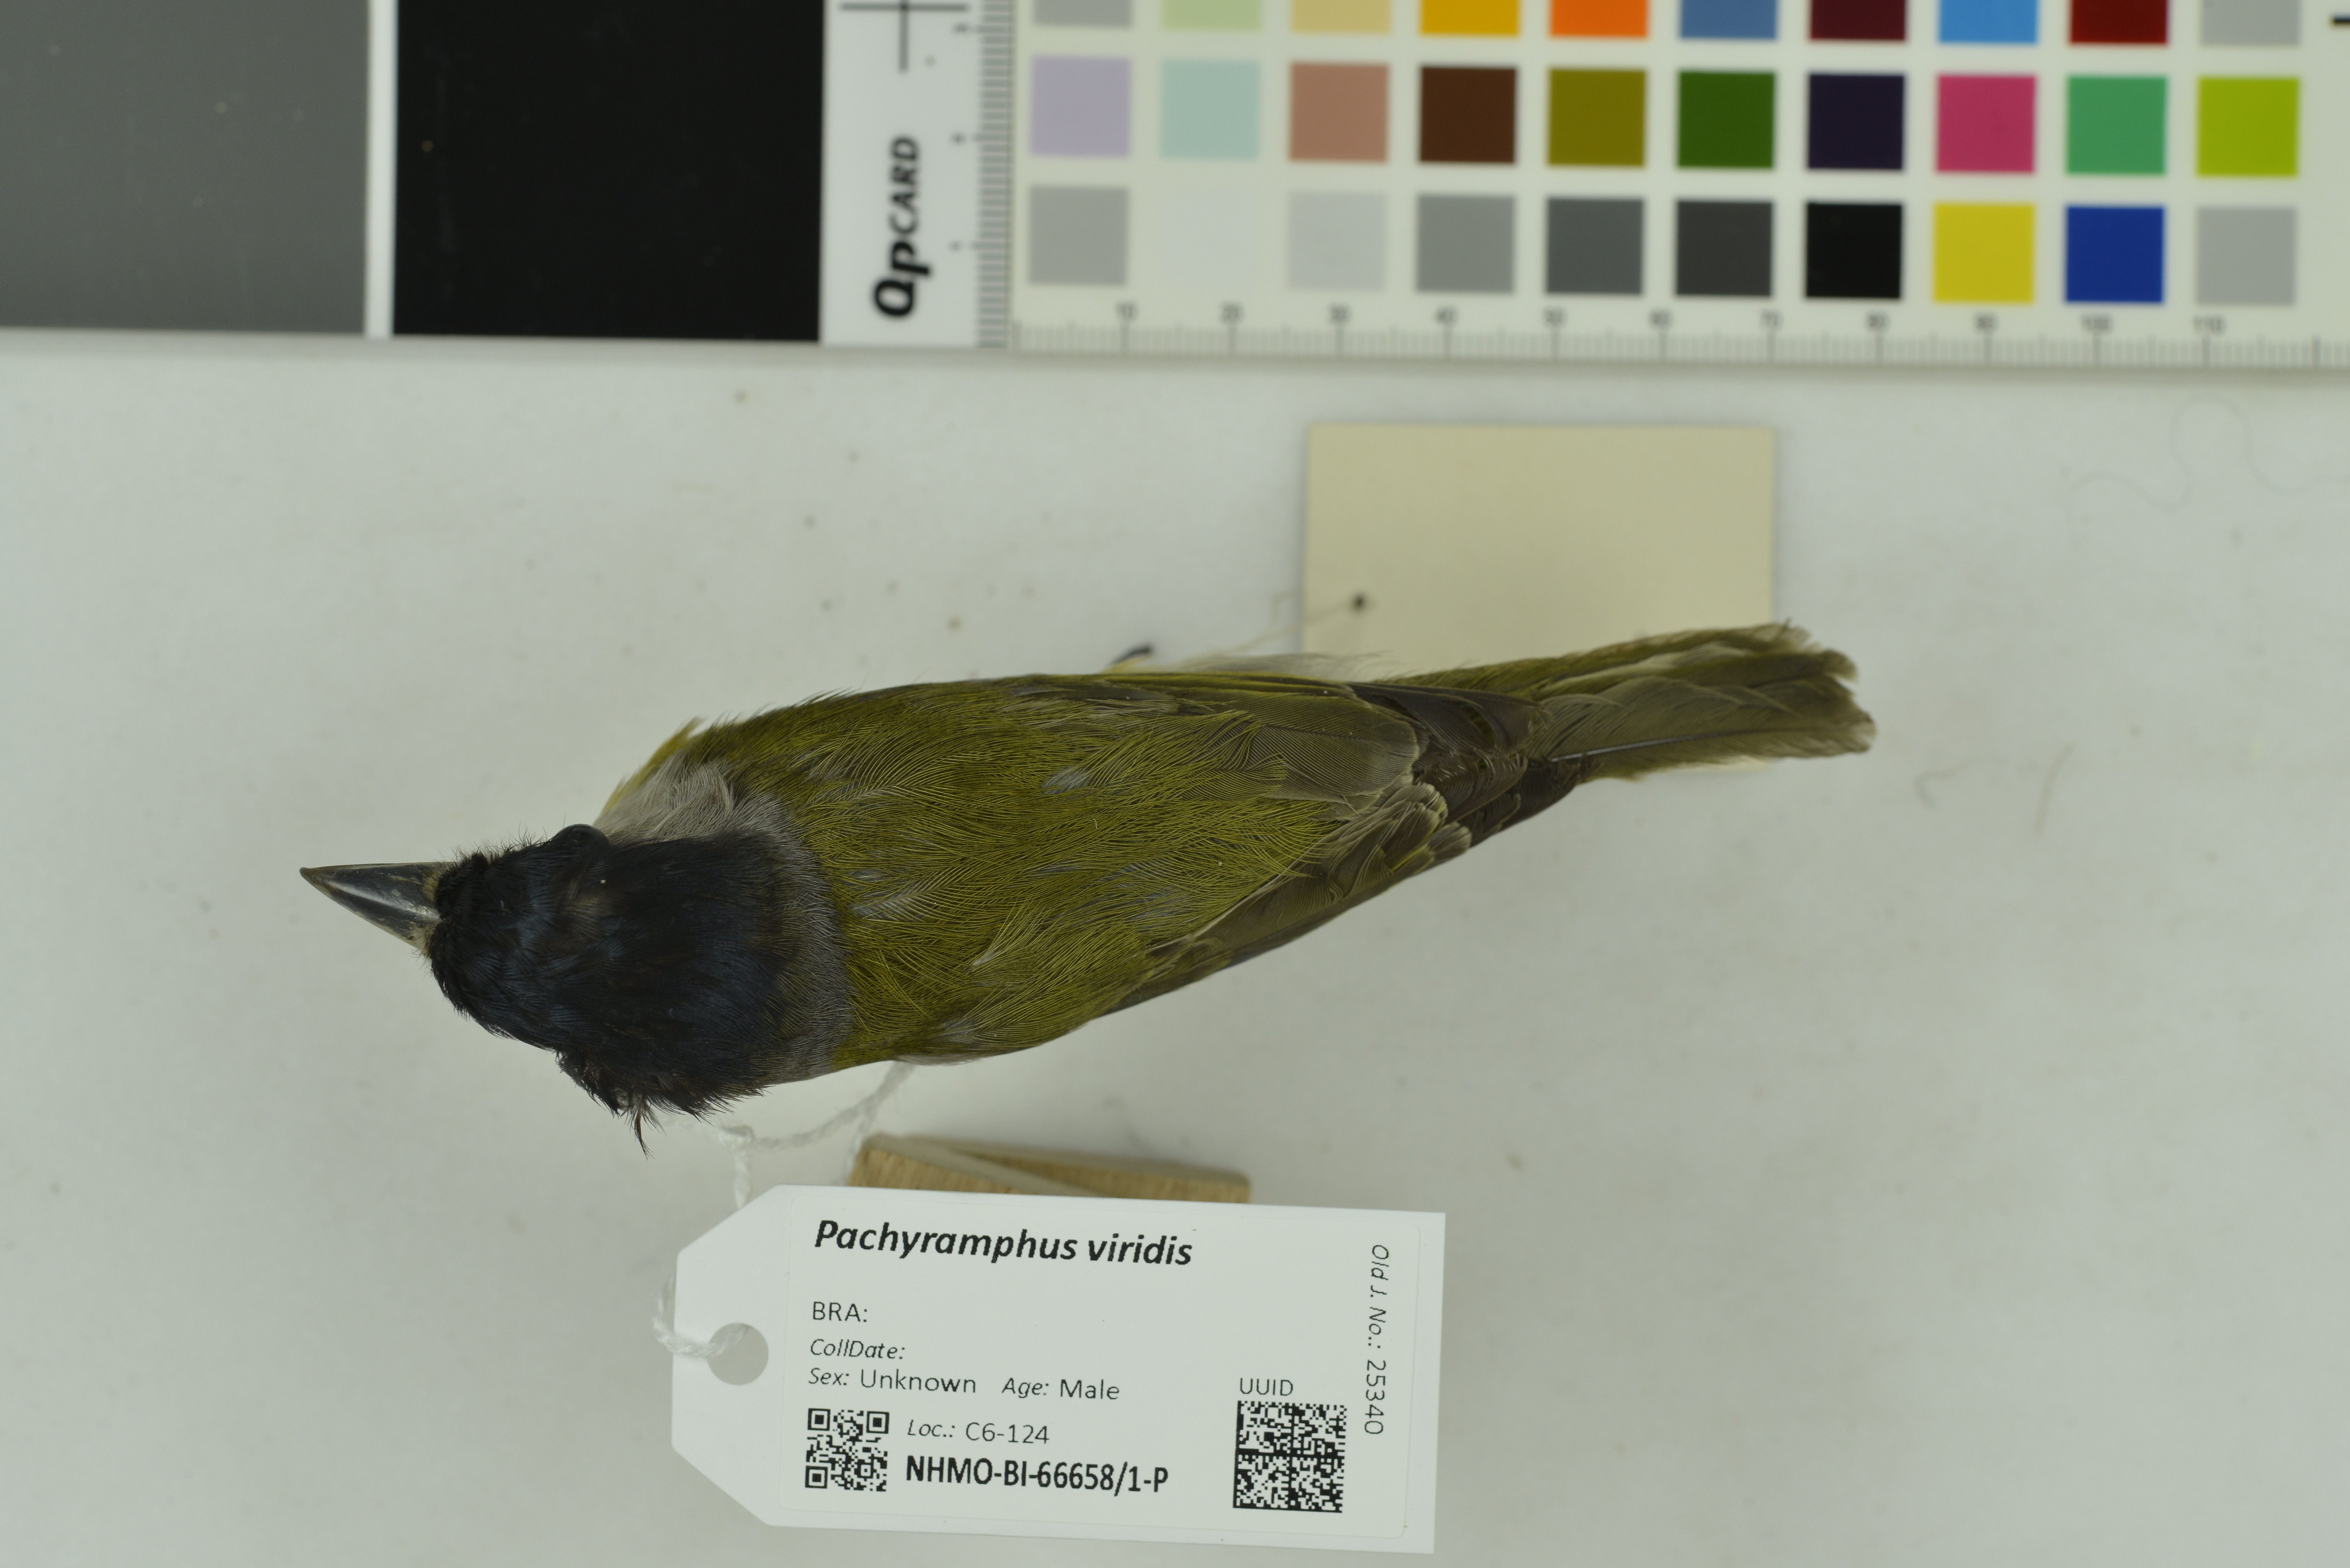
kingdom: Animalia
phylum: Chordata
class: Aves
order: Passeriformes
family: Cotingidae
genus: Pachyramphus
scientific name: Pachyramphus viridis
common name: Green-backed becard
